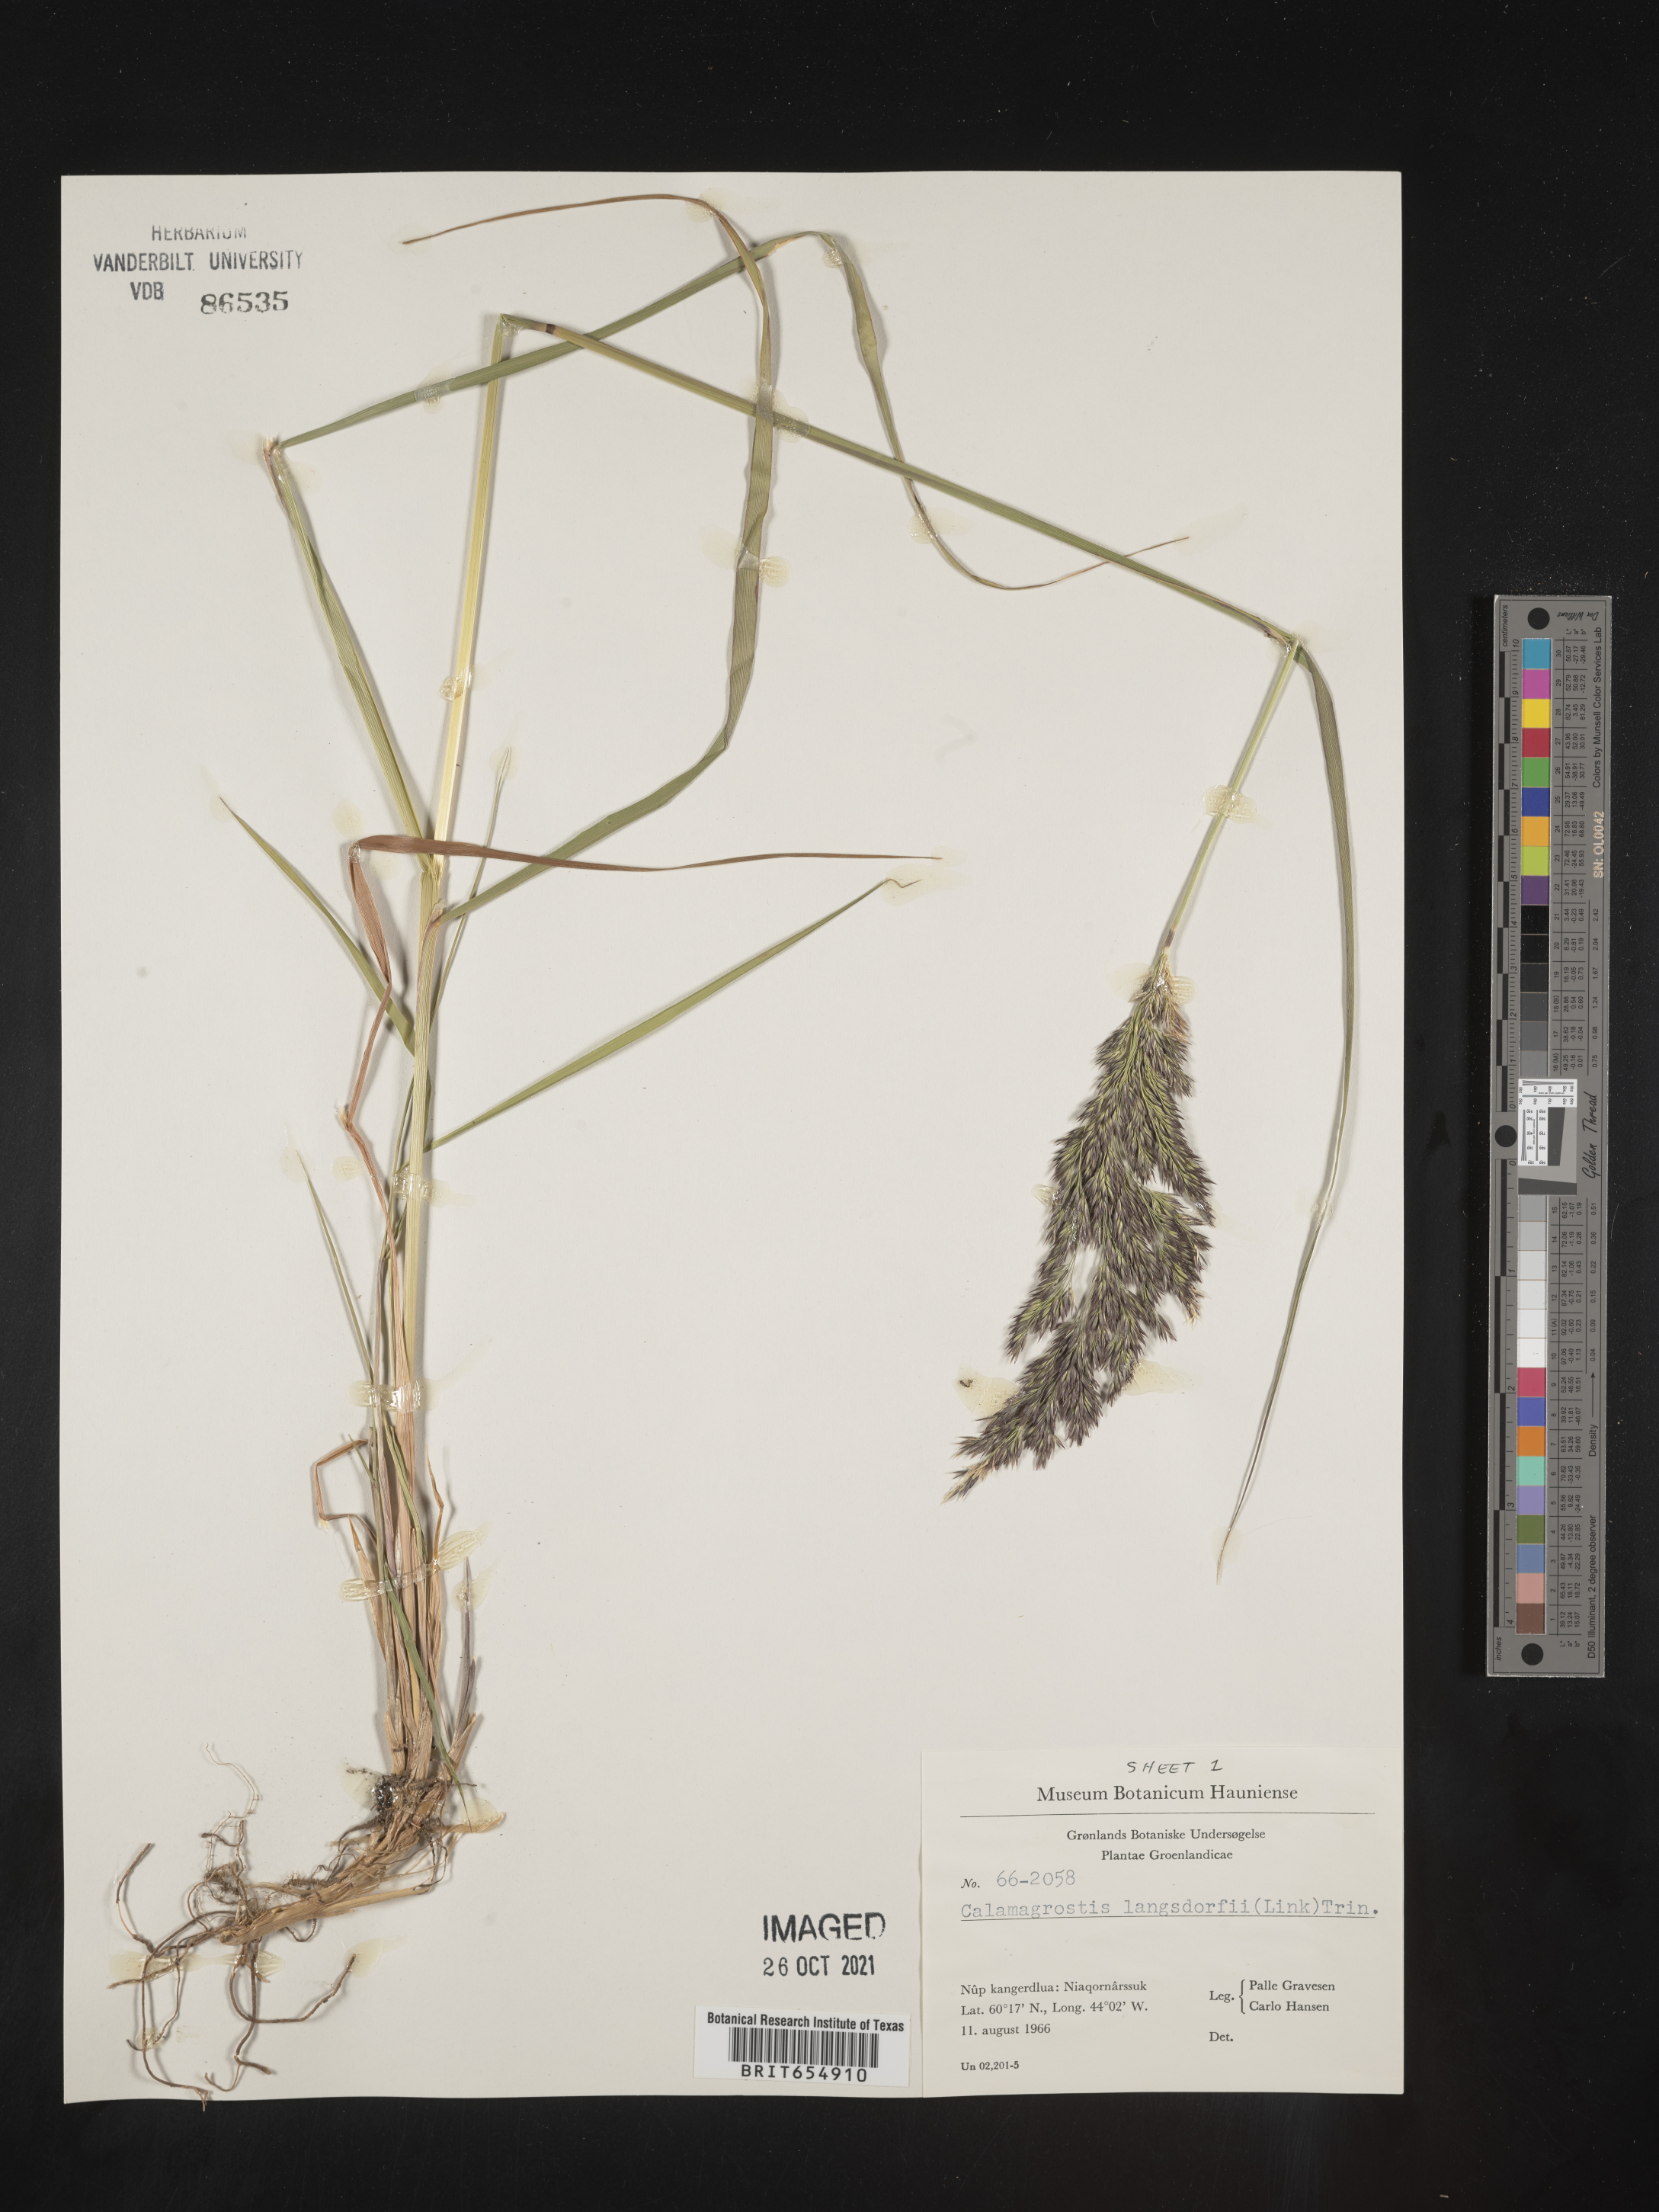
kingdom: Plantae
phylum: Tracheophyta
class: Liliopsida
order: Poales
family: Poaceae
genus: Calamagrostis
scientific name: Calamagrostis
